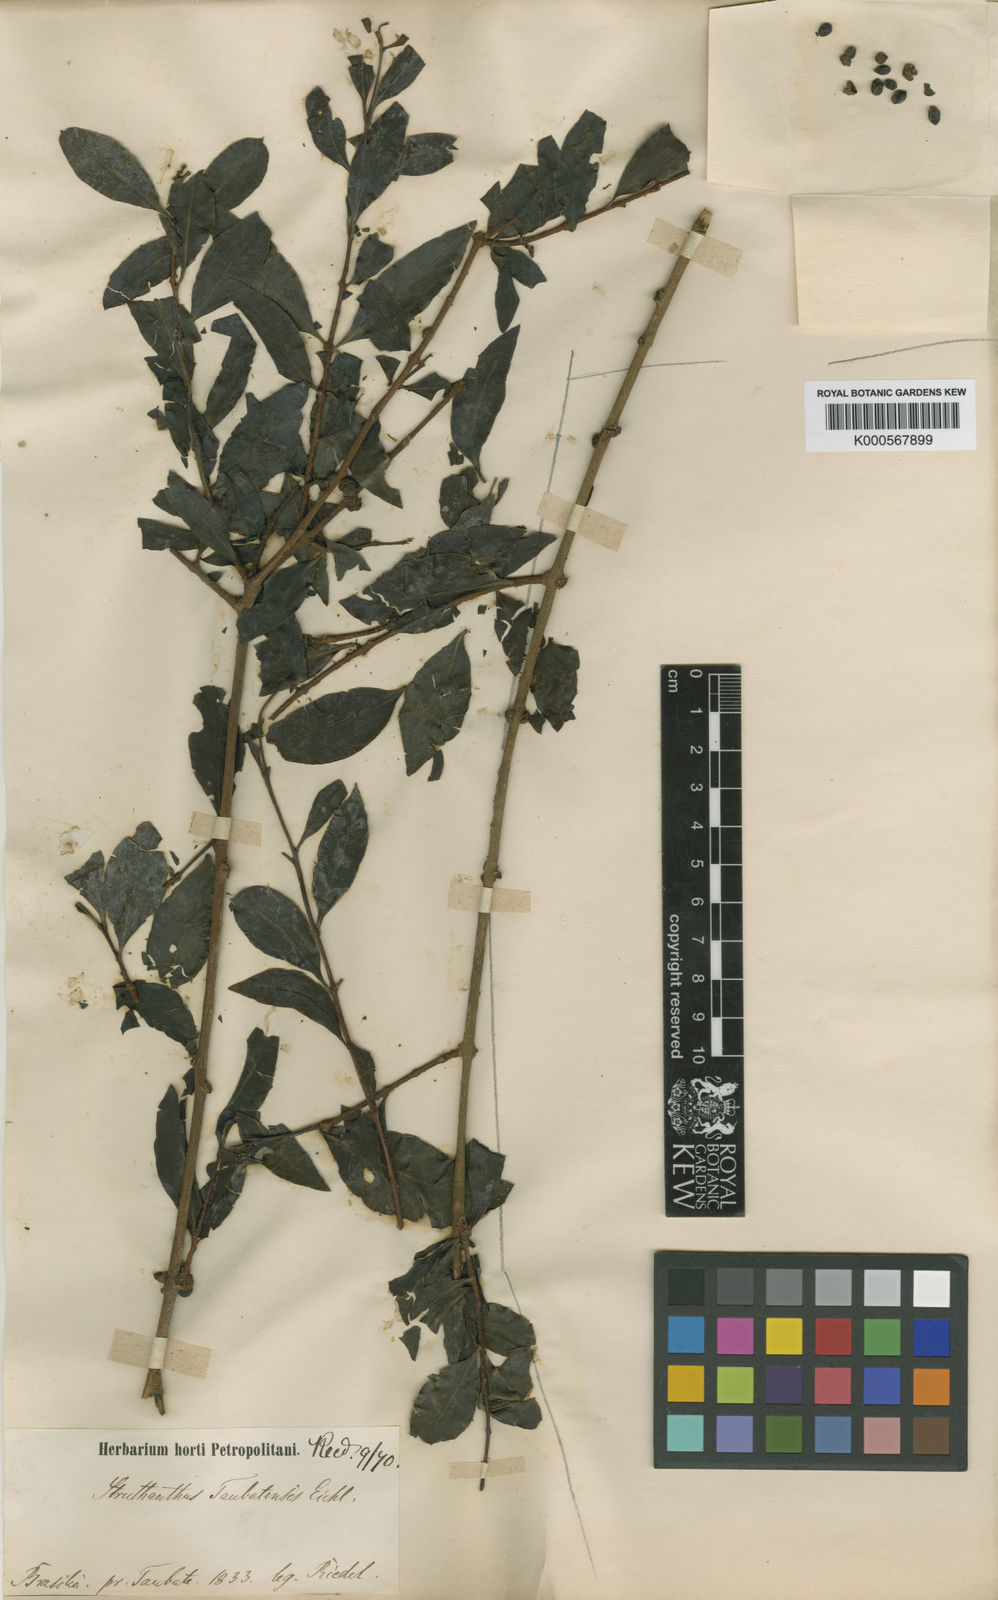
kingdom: Plantae
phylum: Tracheophyta
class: Magnoliopsida
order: Santalales
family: Loranthaceae
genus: Struthanthus
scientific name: Struthanthus taubatensis
